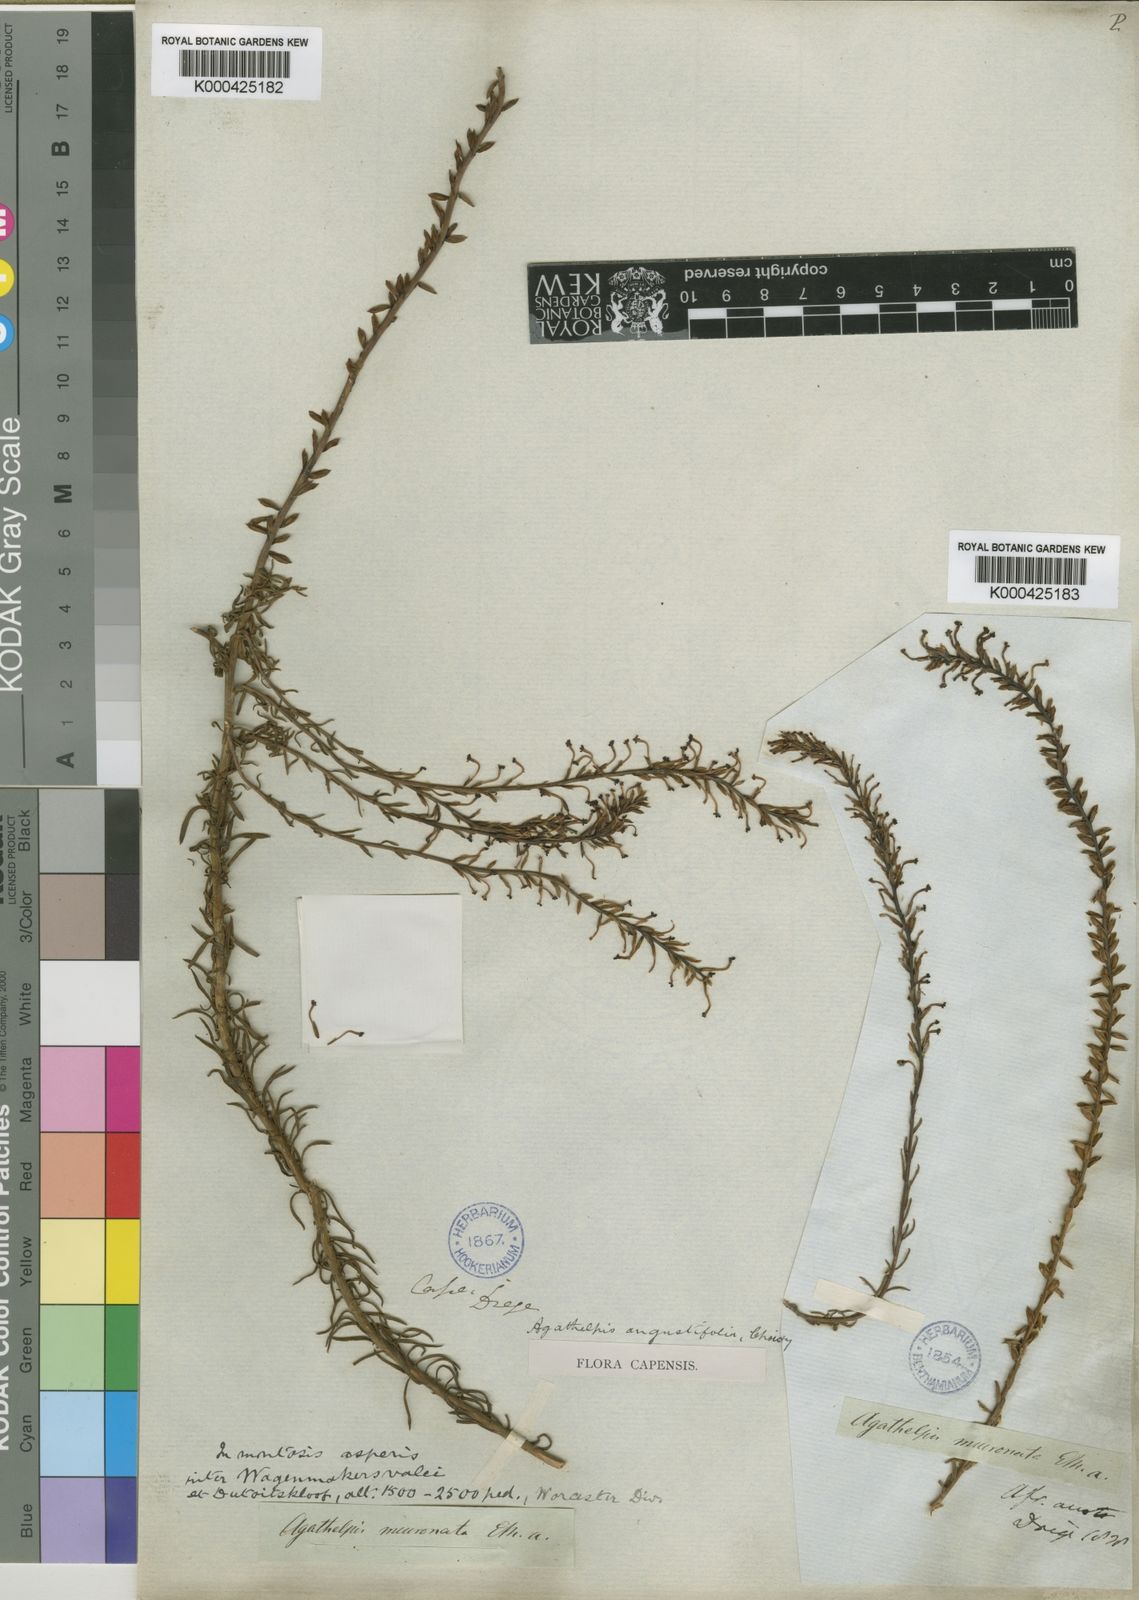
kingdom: Plantae
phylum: Tracheophyta
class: Magnoliopsida
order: Lamiales
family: Scrophulariaceae
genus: Microdon
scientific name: Microdon dubius
